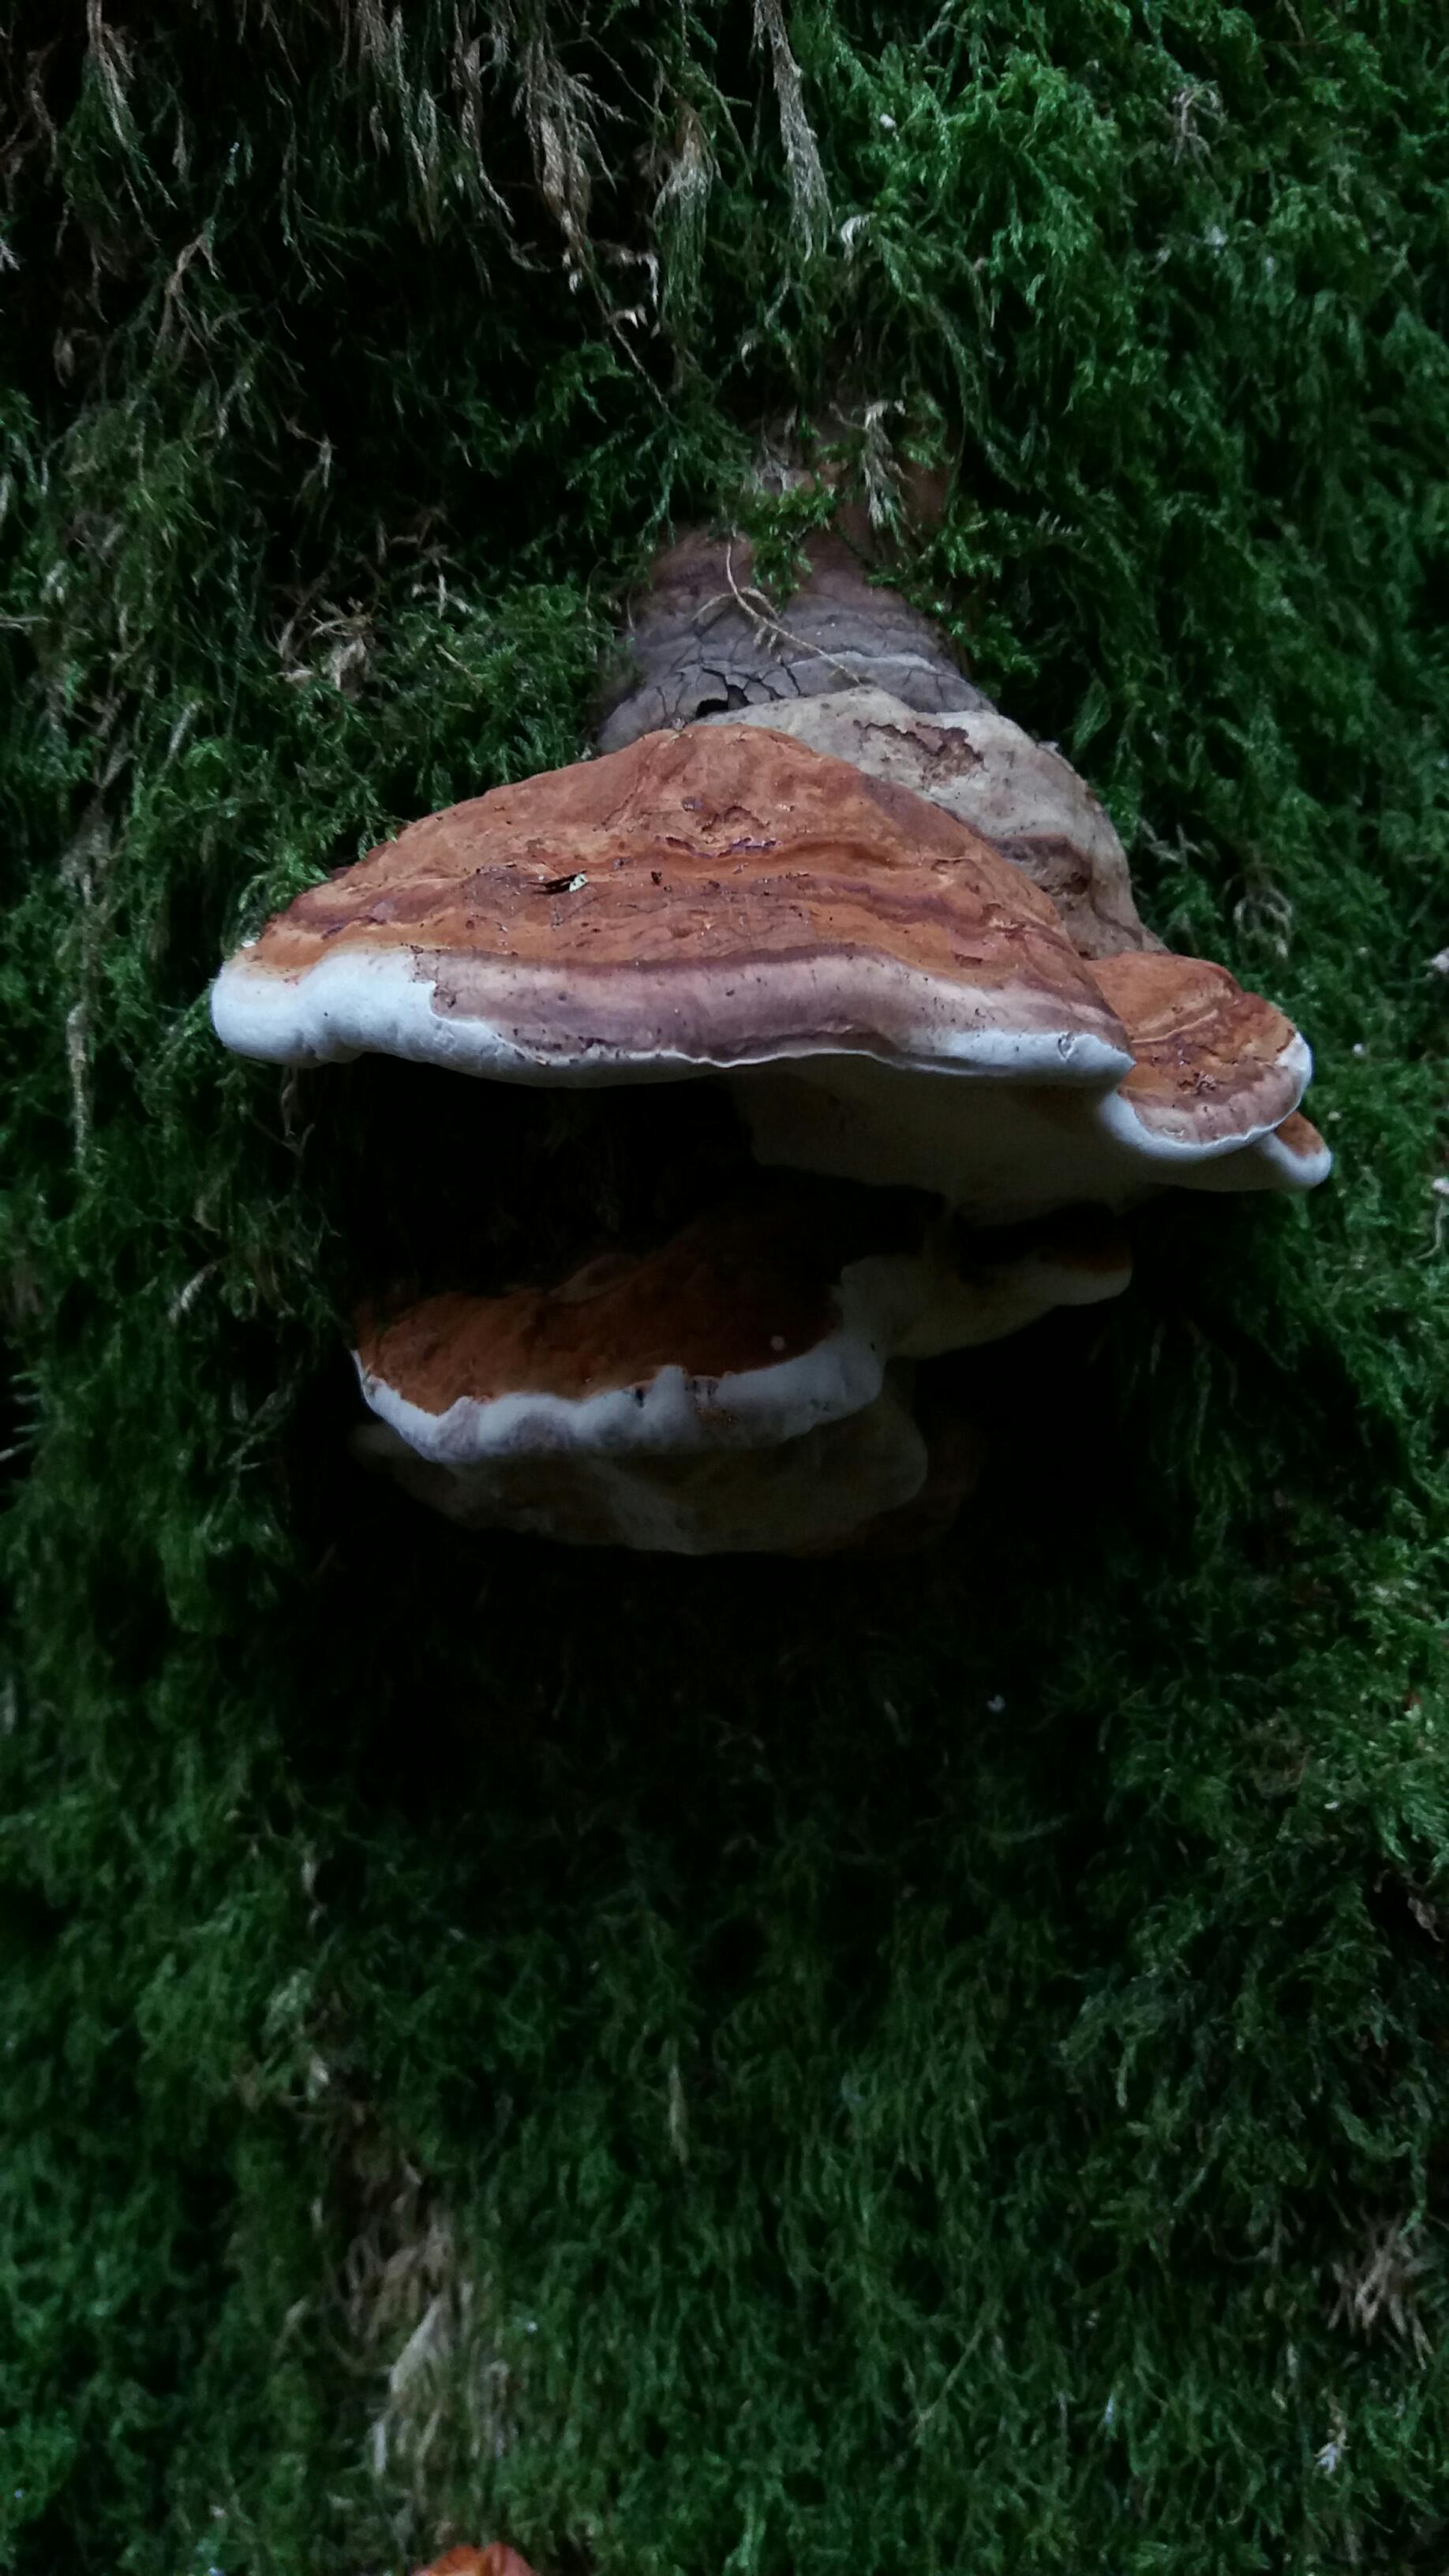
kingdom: Fungi
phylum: Basidiomycota
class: Agaricomycetes
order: Polyporales
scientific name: Polyporales
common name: poresvampordenen
